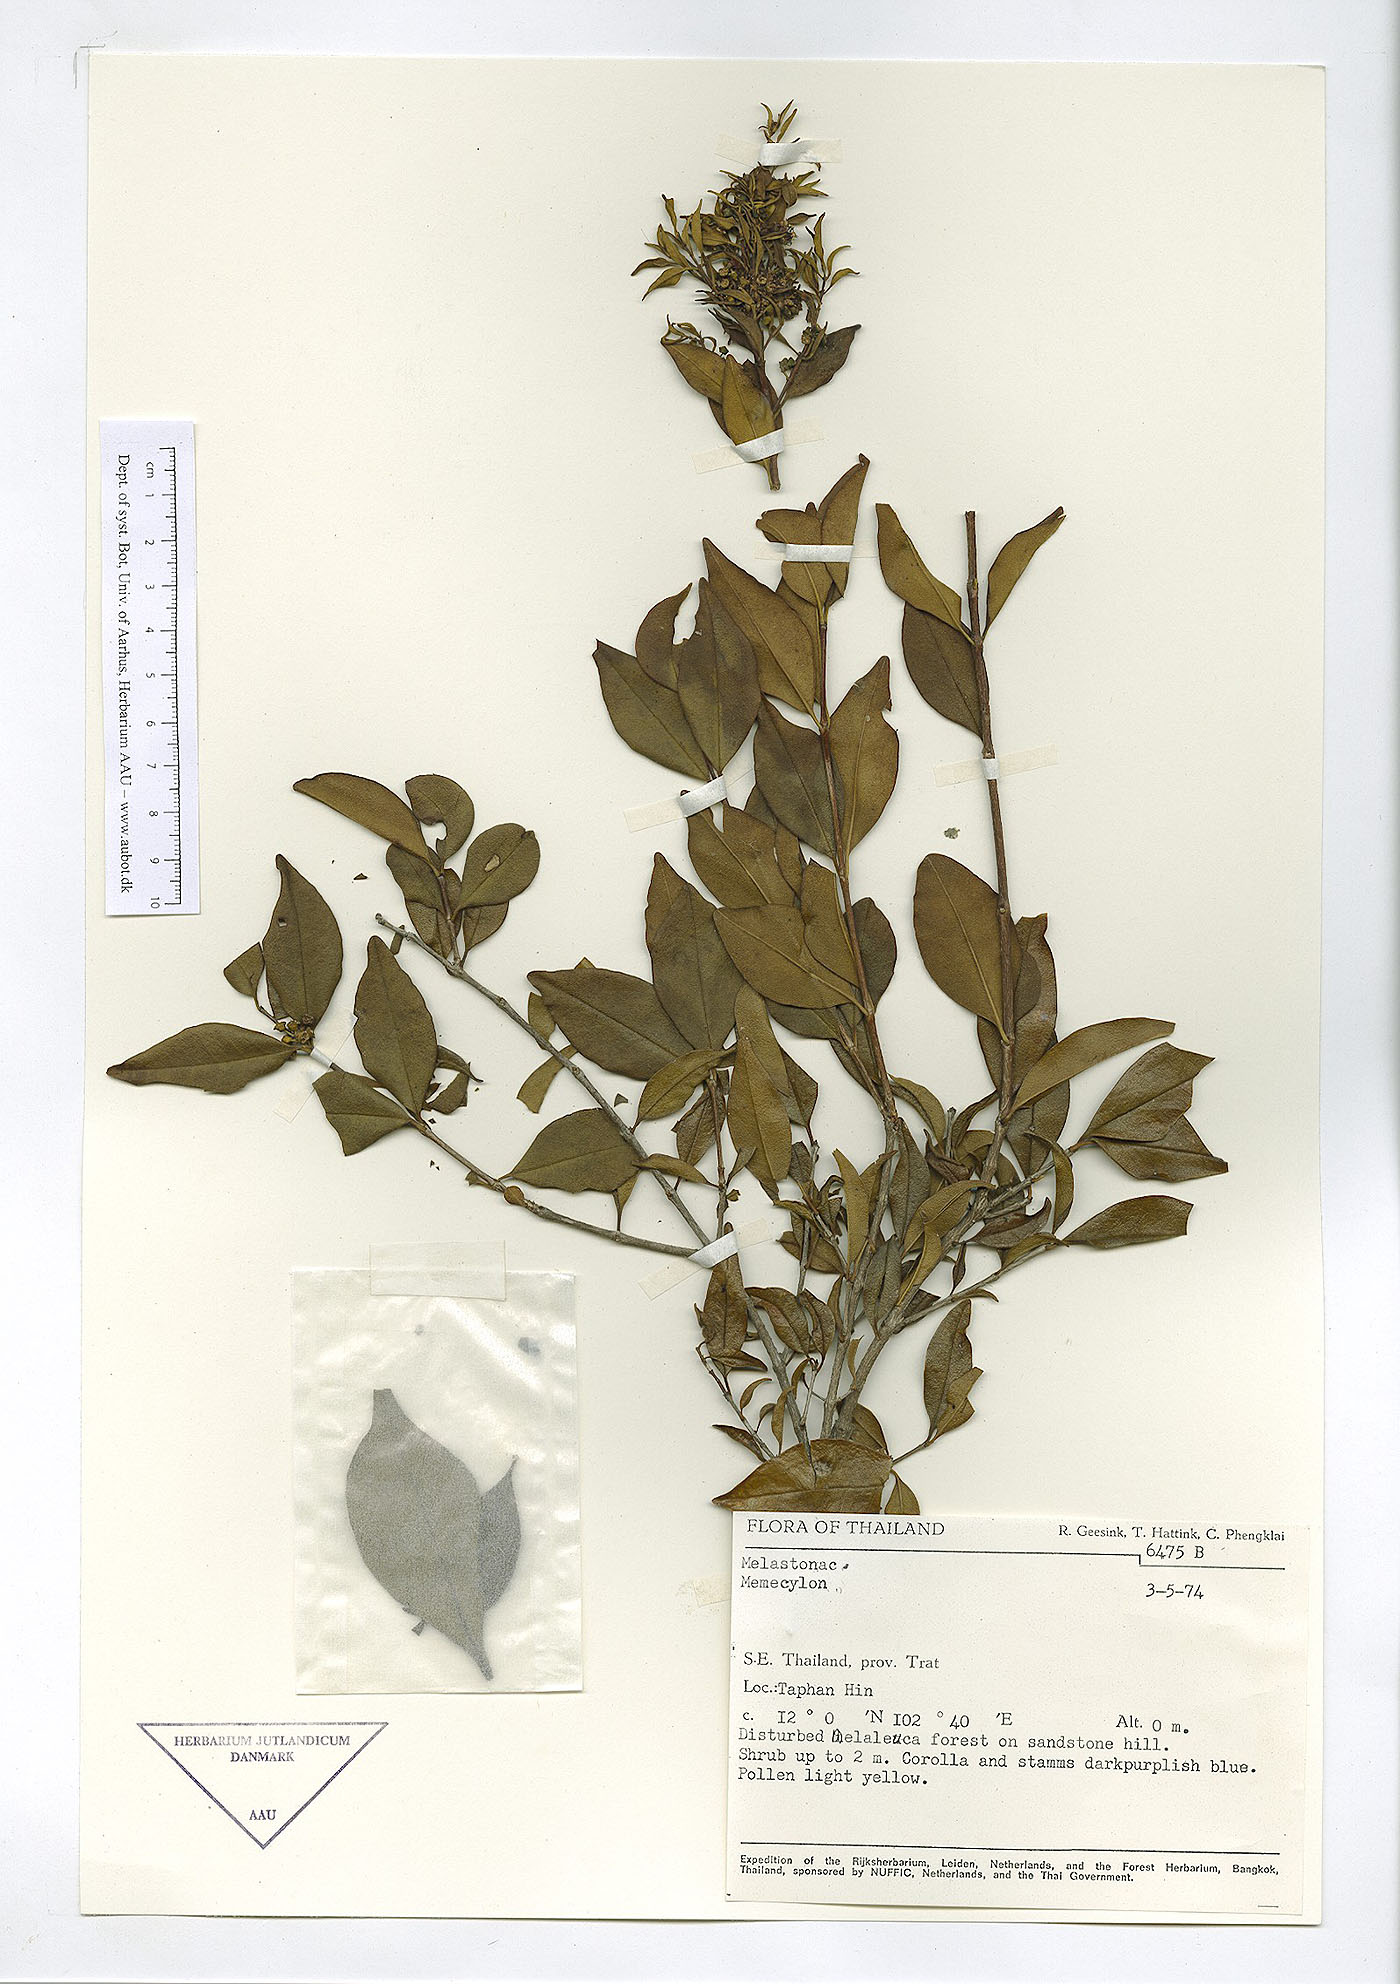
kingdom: Plantae
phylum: Tracheophyta
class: Magnoliopsida
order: Myrtales
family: Melastomataceae
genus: Memecylon
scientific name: Memecylon scutellatum
